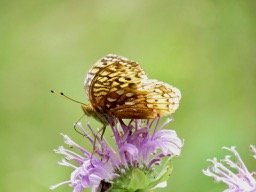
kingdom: Animalia
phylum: Arthropoda
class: Insecta
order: Lepidoptera
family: Nymphalidae
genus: Speyeria
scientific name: Speyeria cybele
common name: Great Spangled Fritillary
